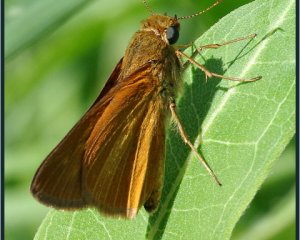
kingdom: Animalia
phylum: Arthropoda
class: Insecta
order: Lepidoptera
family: Hesperiidae
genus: Euphyes
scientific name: Euphyes dion
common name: Dion Skipper
